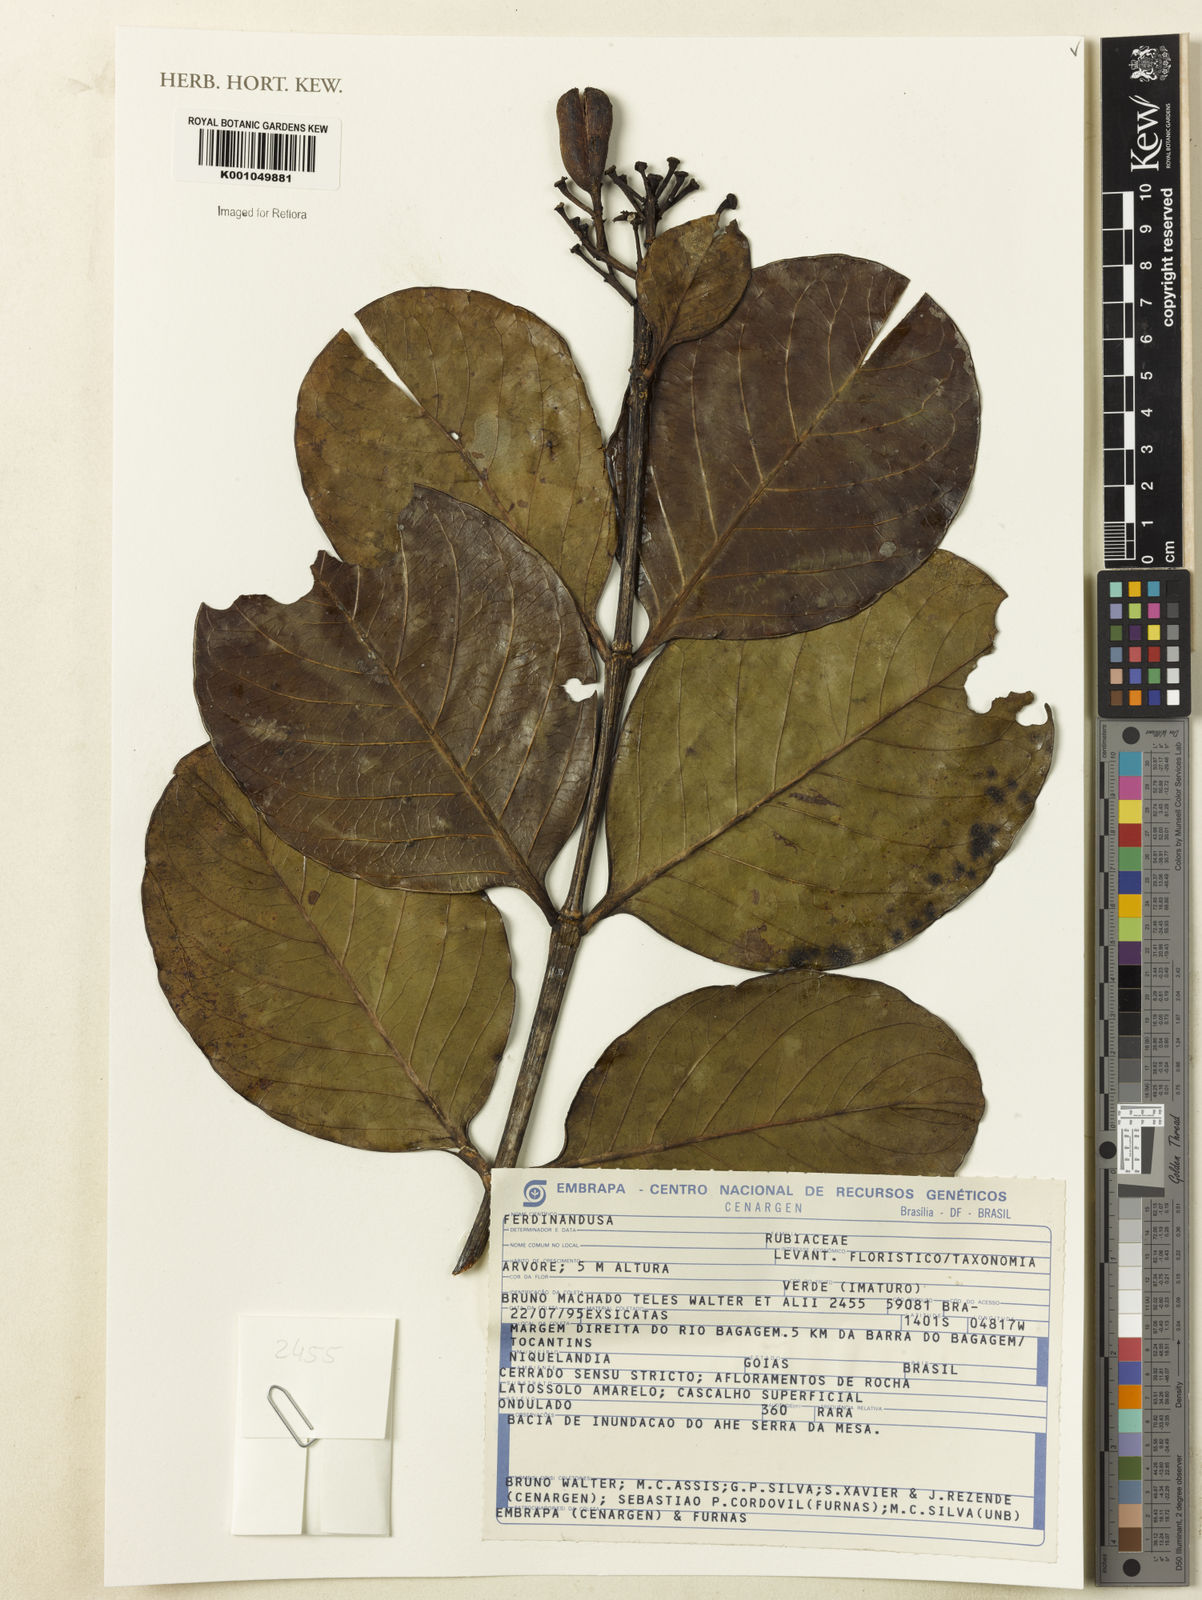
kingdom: Plantae
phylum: Tracheophyta
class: Magnoliopsida
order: Gentianales
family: Rubiaceae
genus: Ferdinandusa
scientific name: Ferdinandusa
